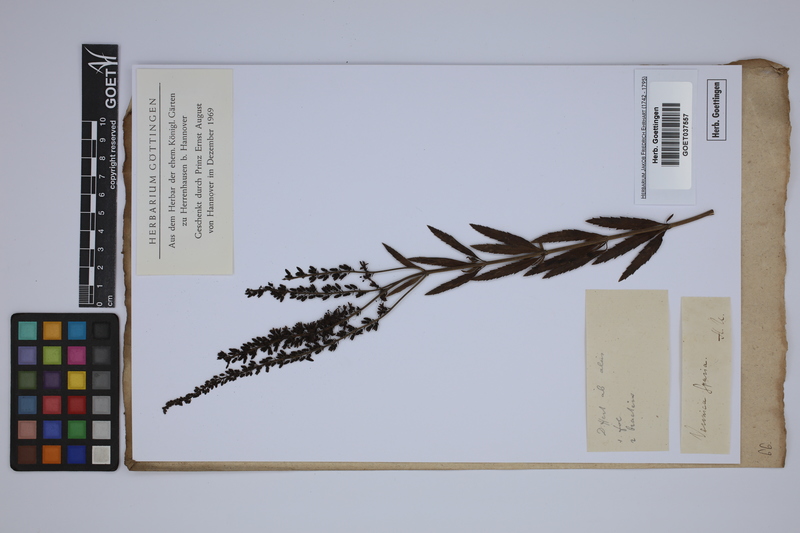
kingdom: Plantae
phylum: Tracheophyta
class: Magnoliopsida
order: Lamiales
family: Plantaginaceae
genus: Veronica
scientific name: Veronica spuria
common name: Bastard speedwell
